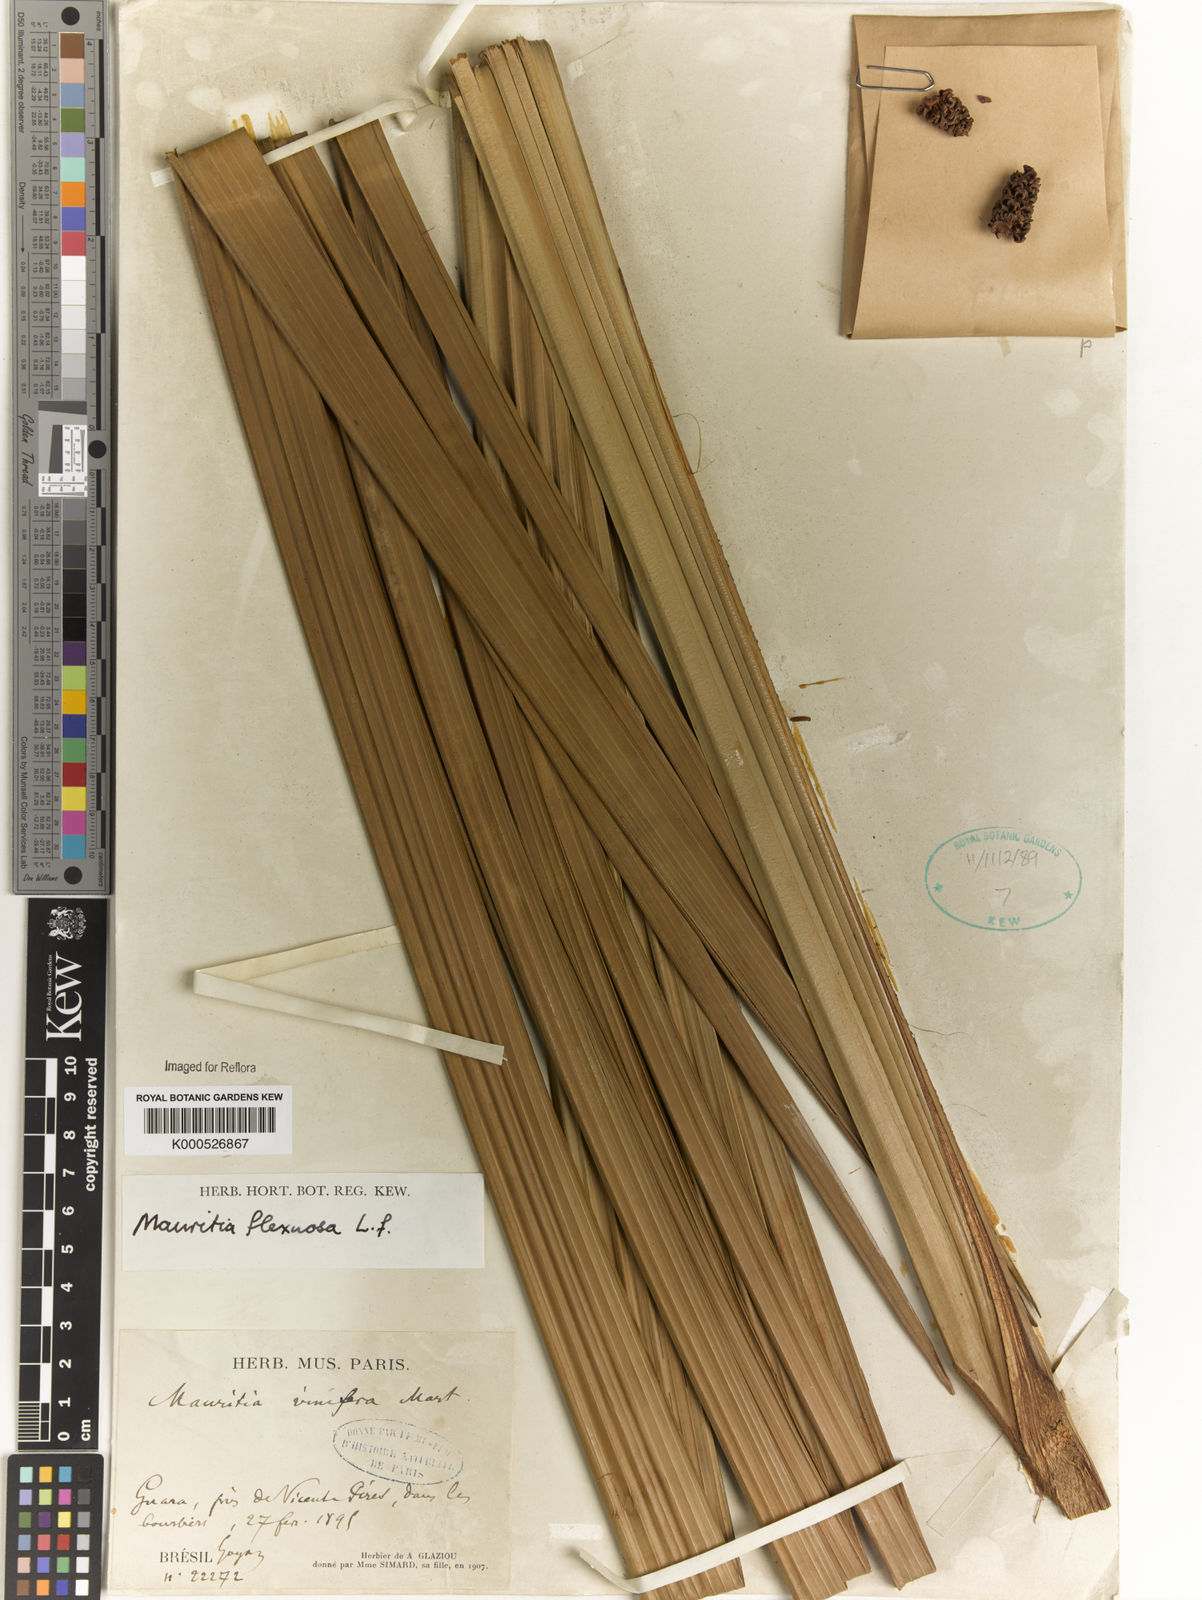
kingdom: Plantae
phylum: Tracheophyta
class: Liliopsida
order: Arecales
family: Arecaceae
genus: Mauritia
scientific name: Mauritia flexuosa
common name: Tree-of-life
